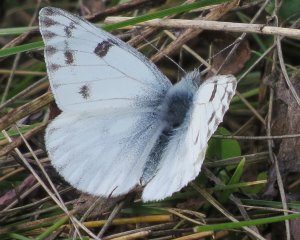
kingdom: Animalia
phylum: Arthropoda
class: Insecta
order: Lepidoptera
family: Pieridae
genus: Pontia
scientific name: Pontia protodice
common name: Checkered White
